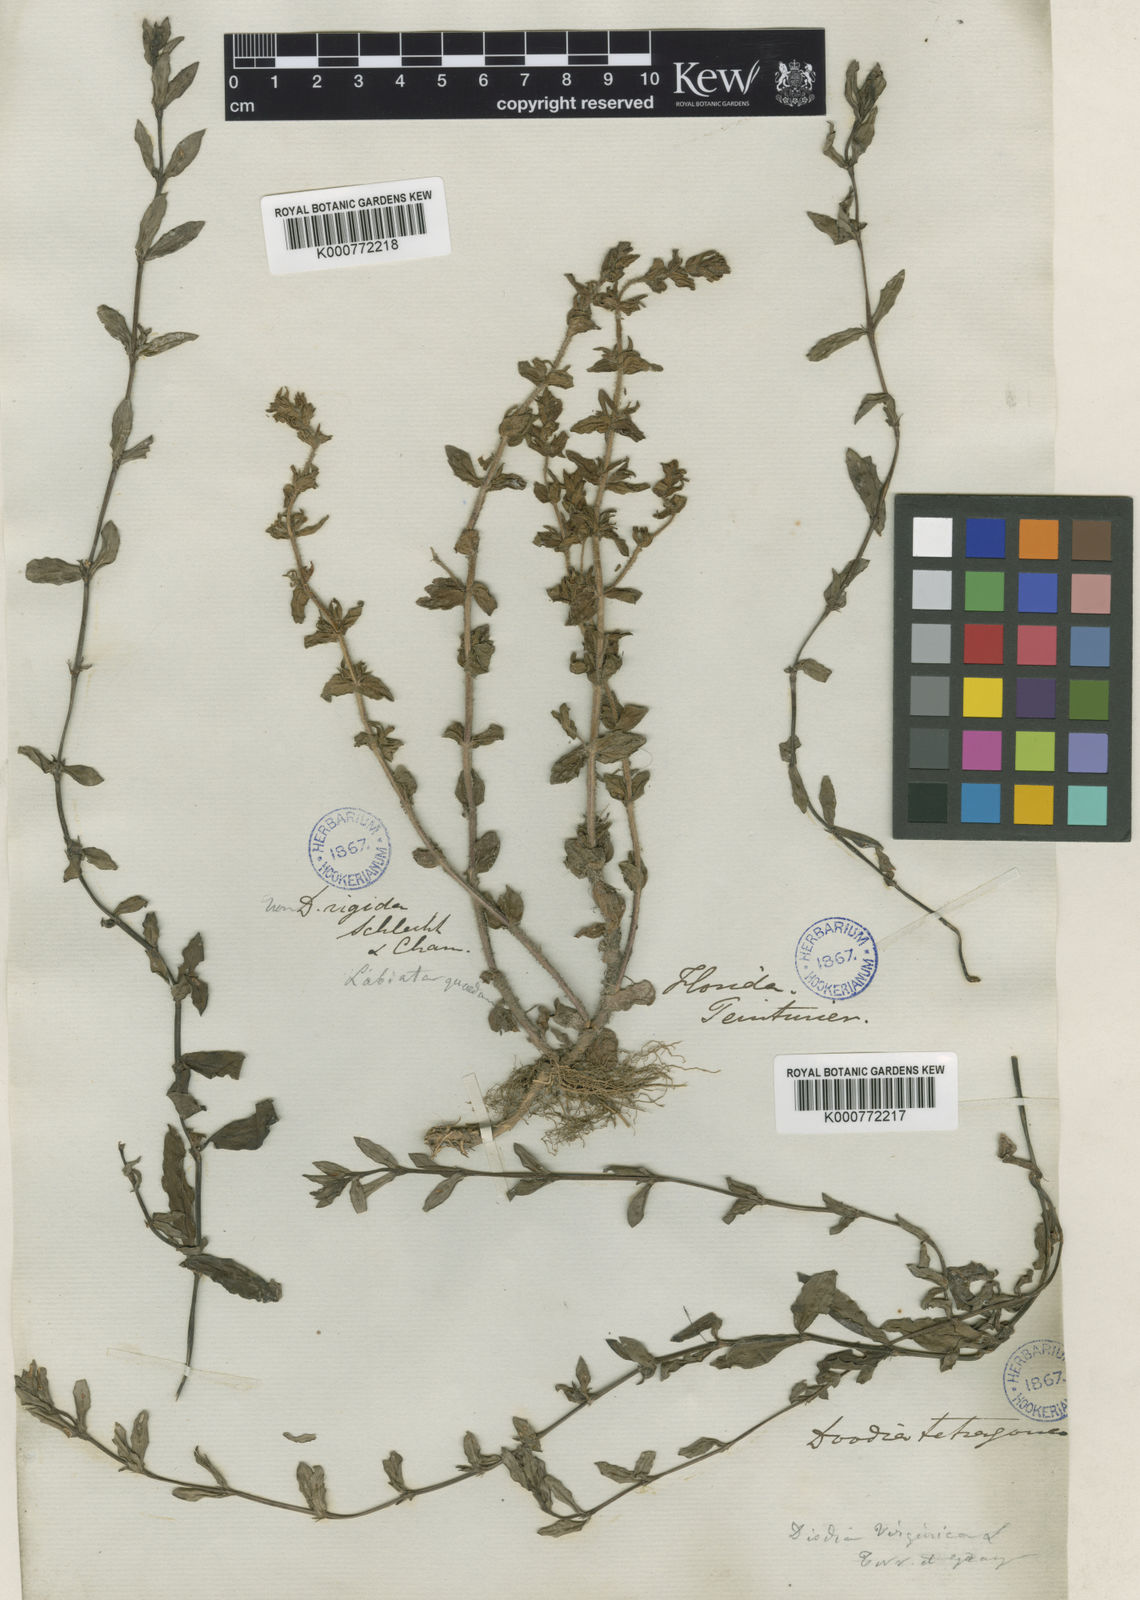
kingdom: Plantae
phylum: Tracheophyta
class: Magnoliopsida
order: Gentianales
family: Rubiaceae
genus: Diodia
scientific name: Diodia virginiana
